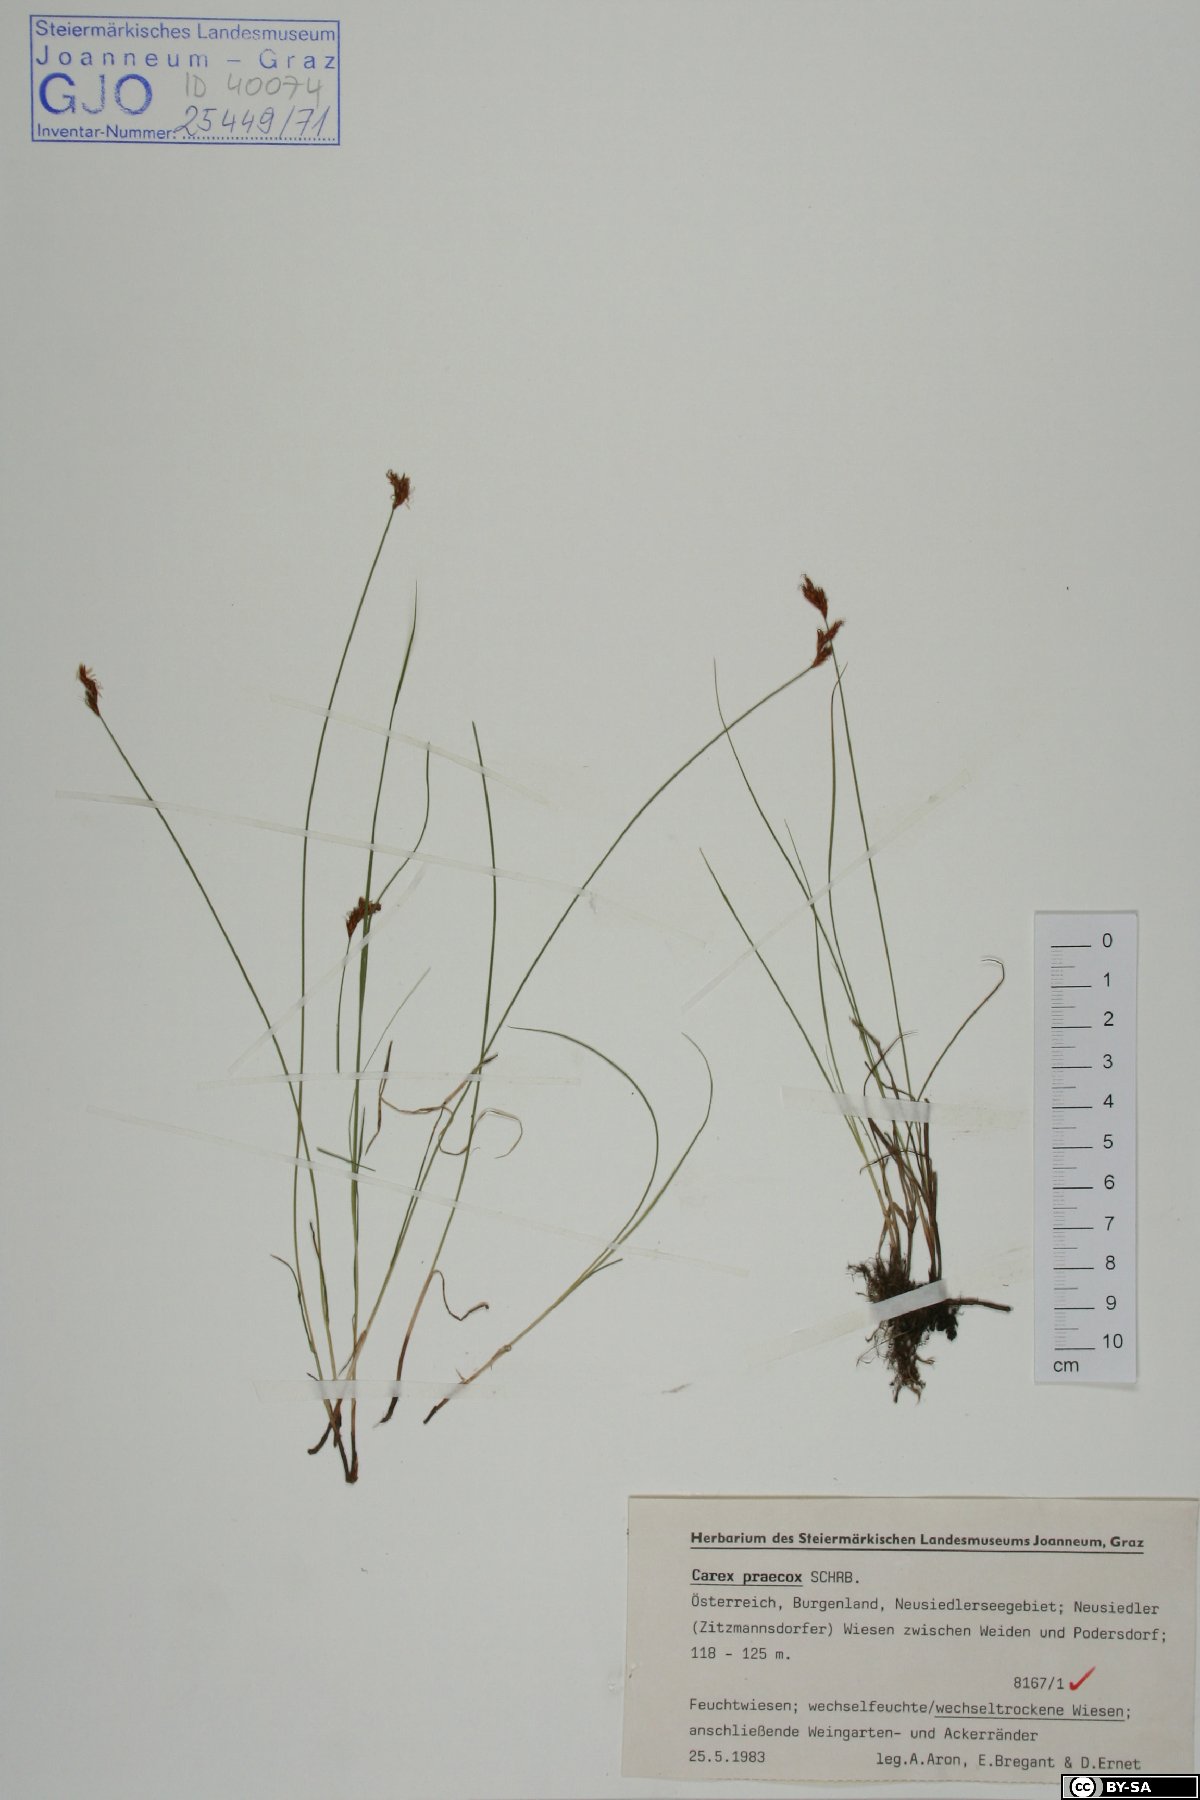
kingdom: Plantae
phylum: Tracheophyta
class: Liliopsida
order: Poales
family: Cyperaceae
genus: Carex
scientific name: Carex praecox
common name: Early sedge
